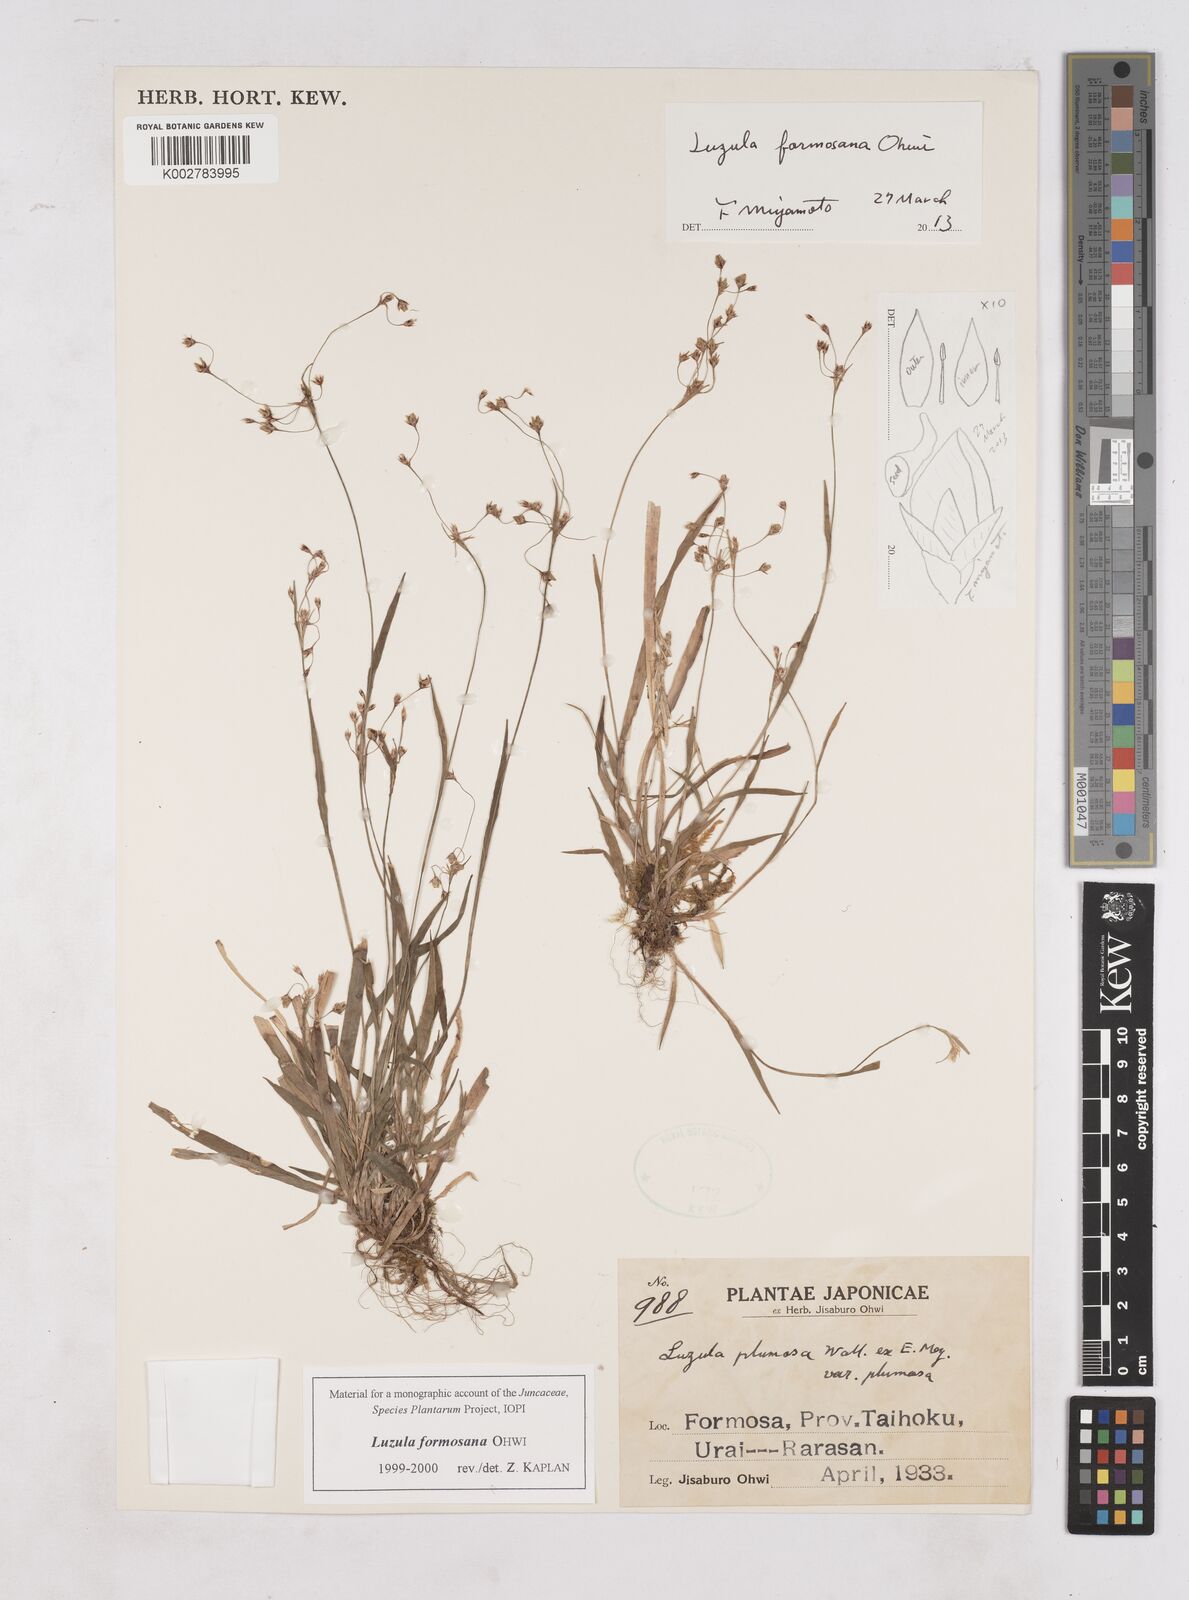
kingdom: Plantae
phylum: Tracheophyta
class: Liliopsida
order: Poales
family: Juncaceae
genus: Luzula
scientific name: Luzula formosana
